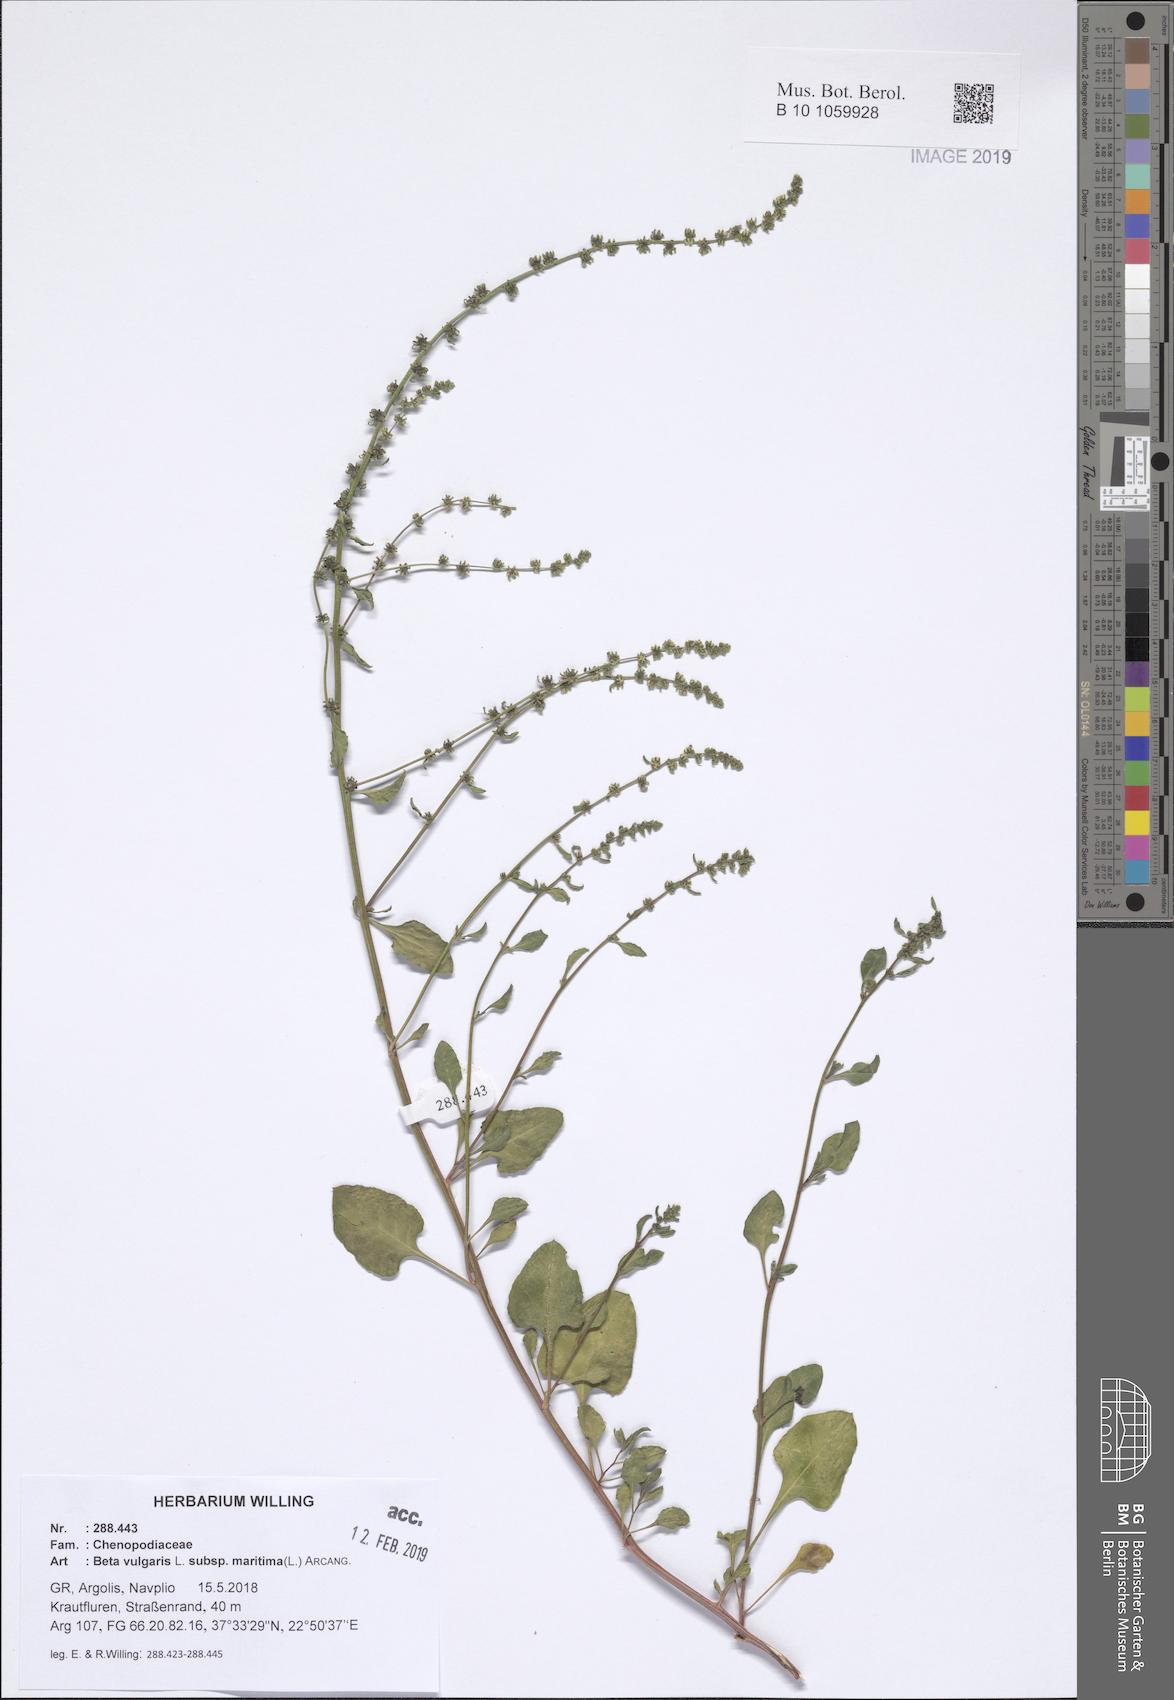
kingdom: Plantae
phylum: Tracheophyta
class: Magnoliopsida
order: Caryophyllales
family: Amaranthaceae
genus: Beta
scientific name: Beta maritima
